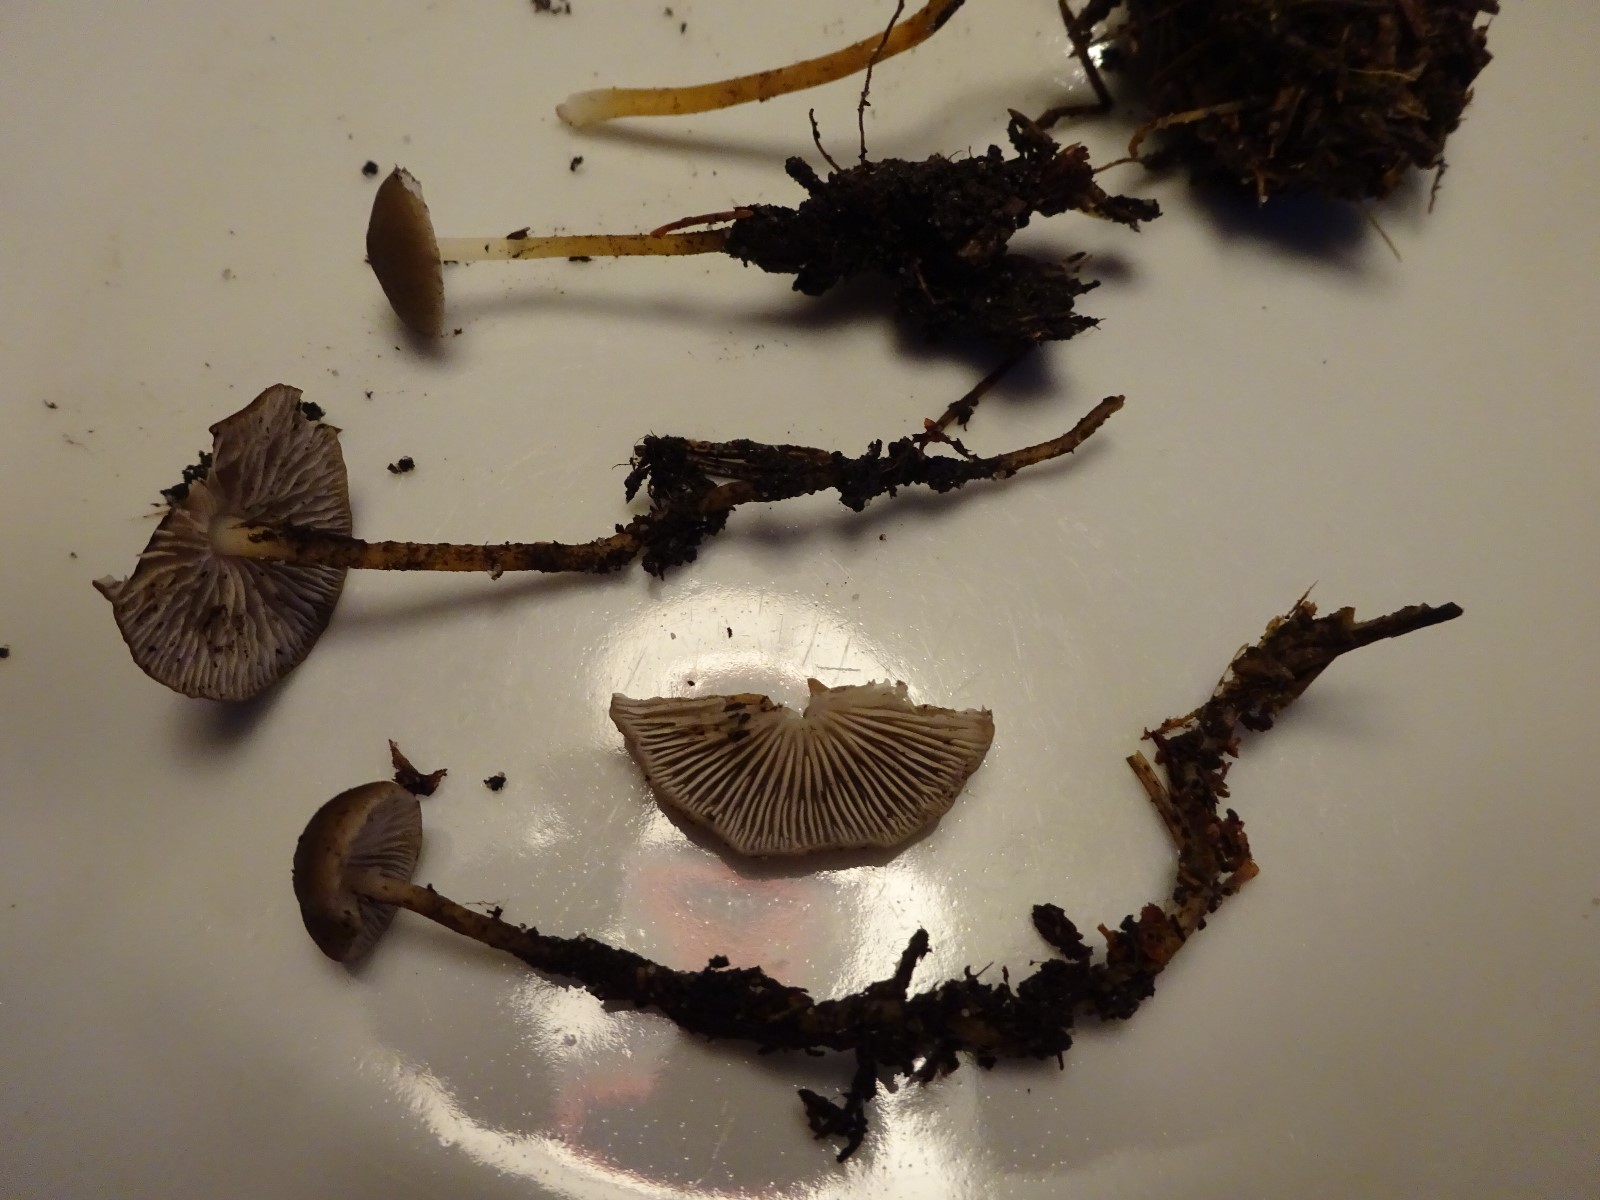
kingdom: Fungi
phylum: Basidiomycota
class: Agaricomycetes
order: Agaricales
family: Physalacriaceae
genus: Strobilurus
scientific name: Strobilurus esculentus
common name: gran-koglehat
